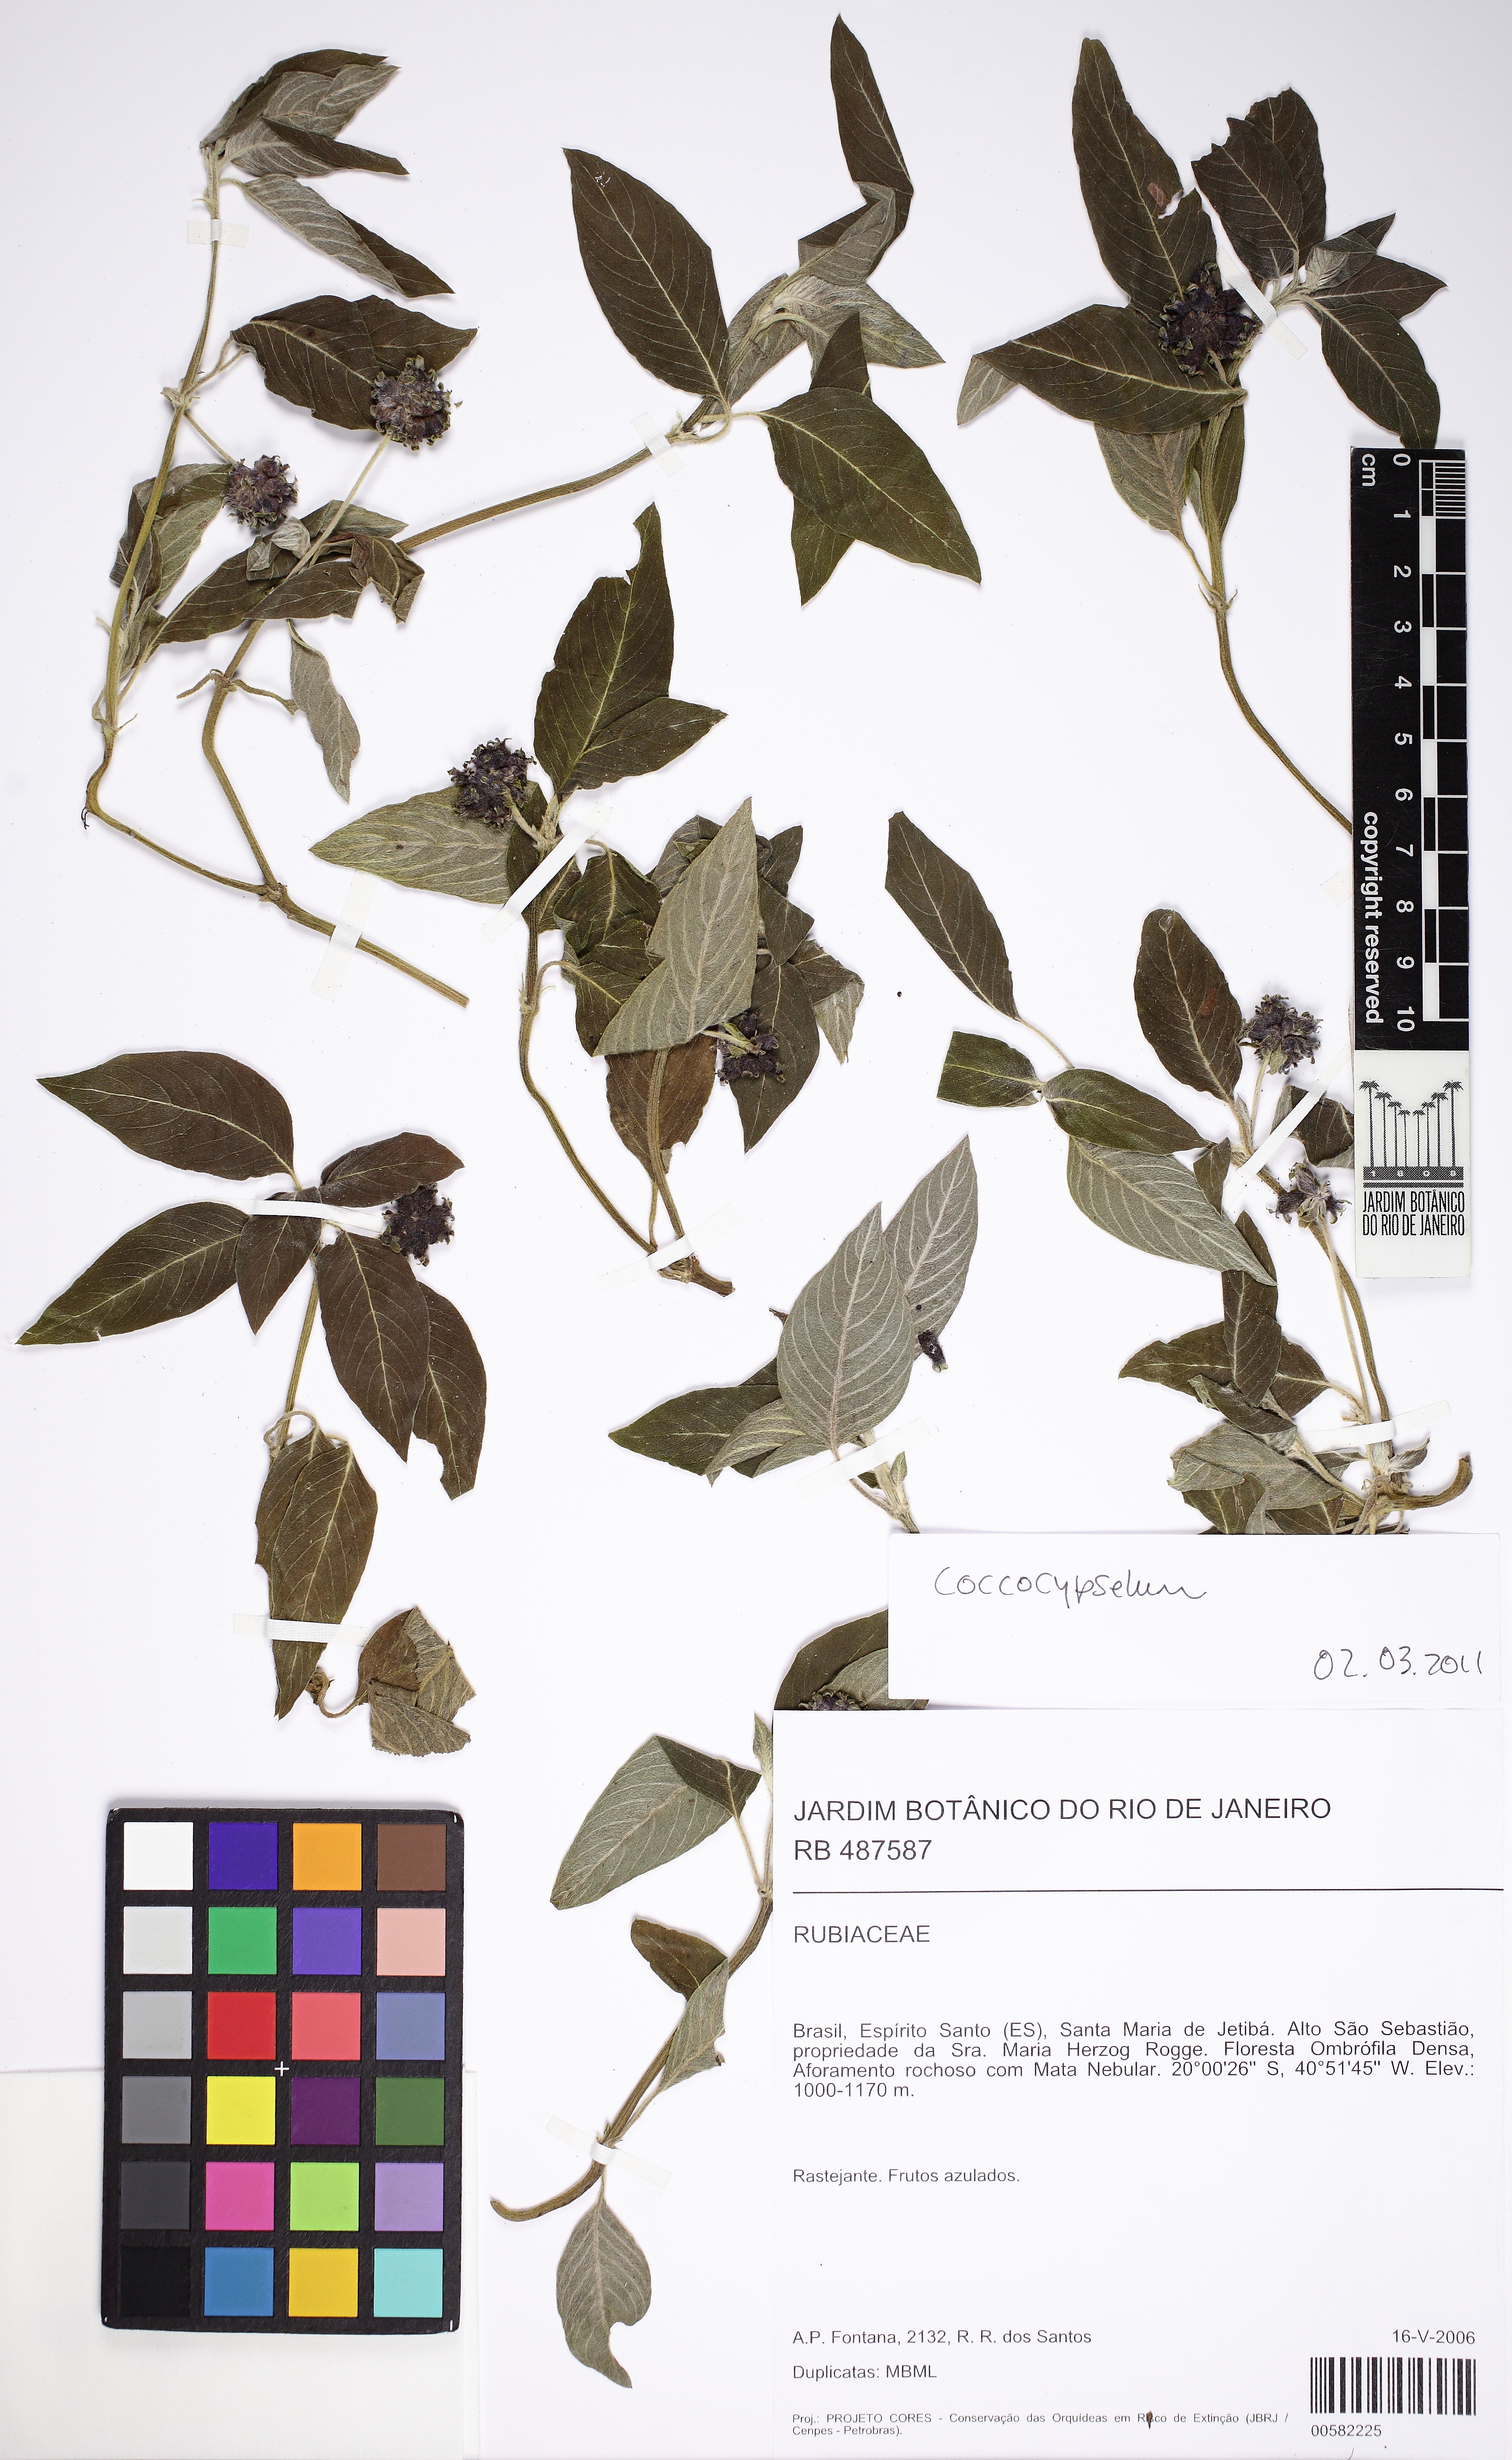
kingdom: Plantae
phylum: Tracheophyta
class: Magnoliopsida
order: Gentianales
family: Rubiaceae
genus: Coccocypselum
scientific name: Coccocypselum
